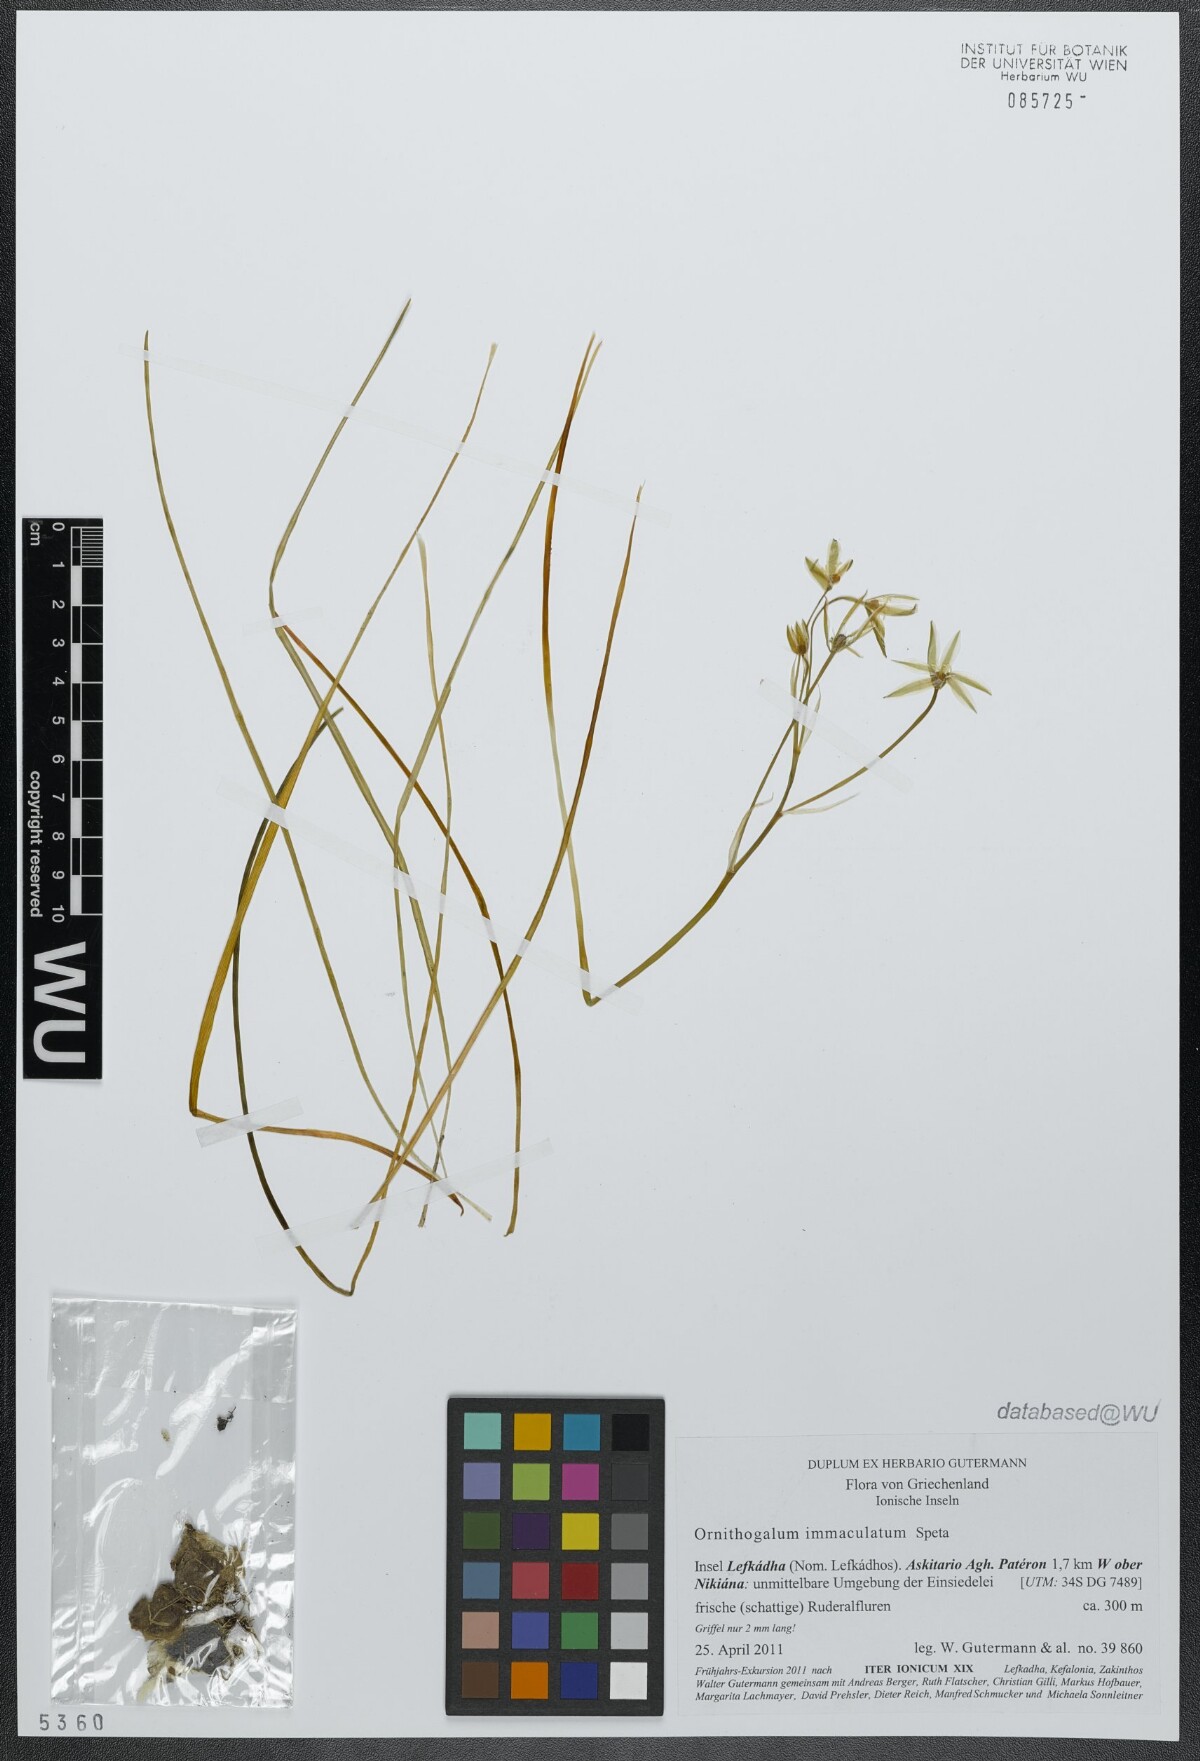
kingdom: Plantae
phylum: Tracheophyta
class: Liliopsida
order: Asparagales
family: Asparagaceae
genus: Ornithogalum
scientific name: Ornithogalum immaculatum
